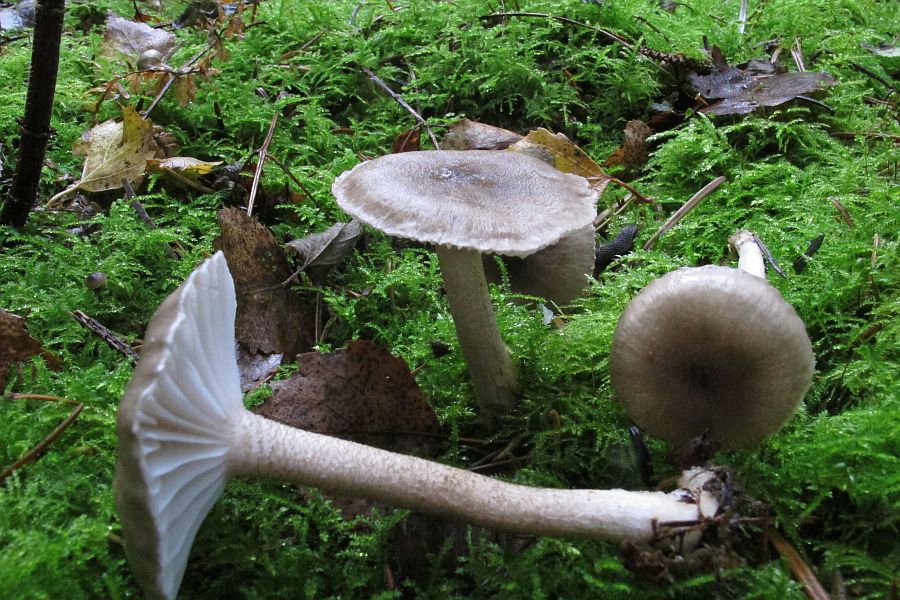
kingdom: Fungi
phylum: Basidiomycota
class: Agaricomycetes
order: Agaricales
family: Hygrophoraceae
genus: Hygrophorus
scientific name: Hygrophorus pustulatus
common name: mørkprikket sneglehat
